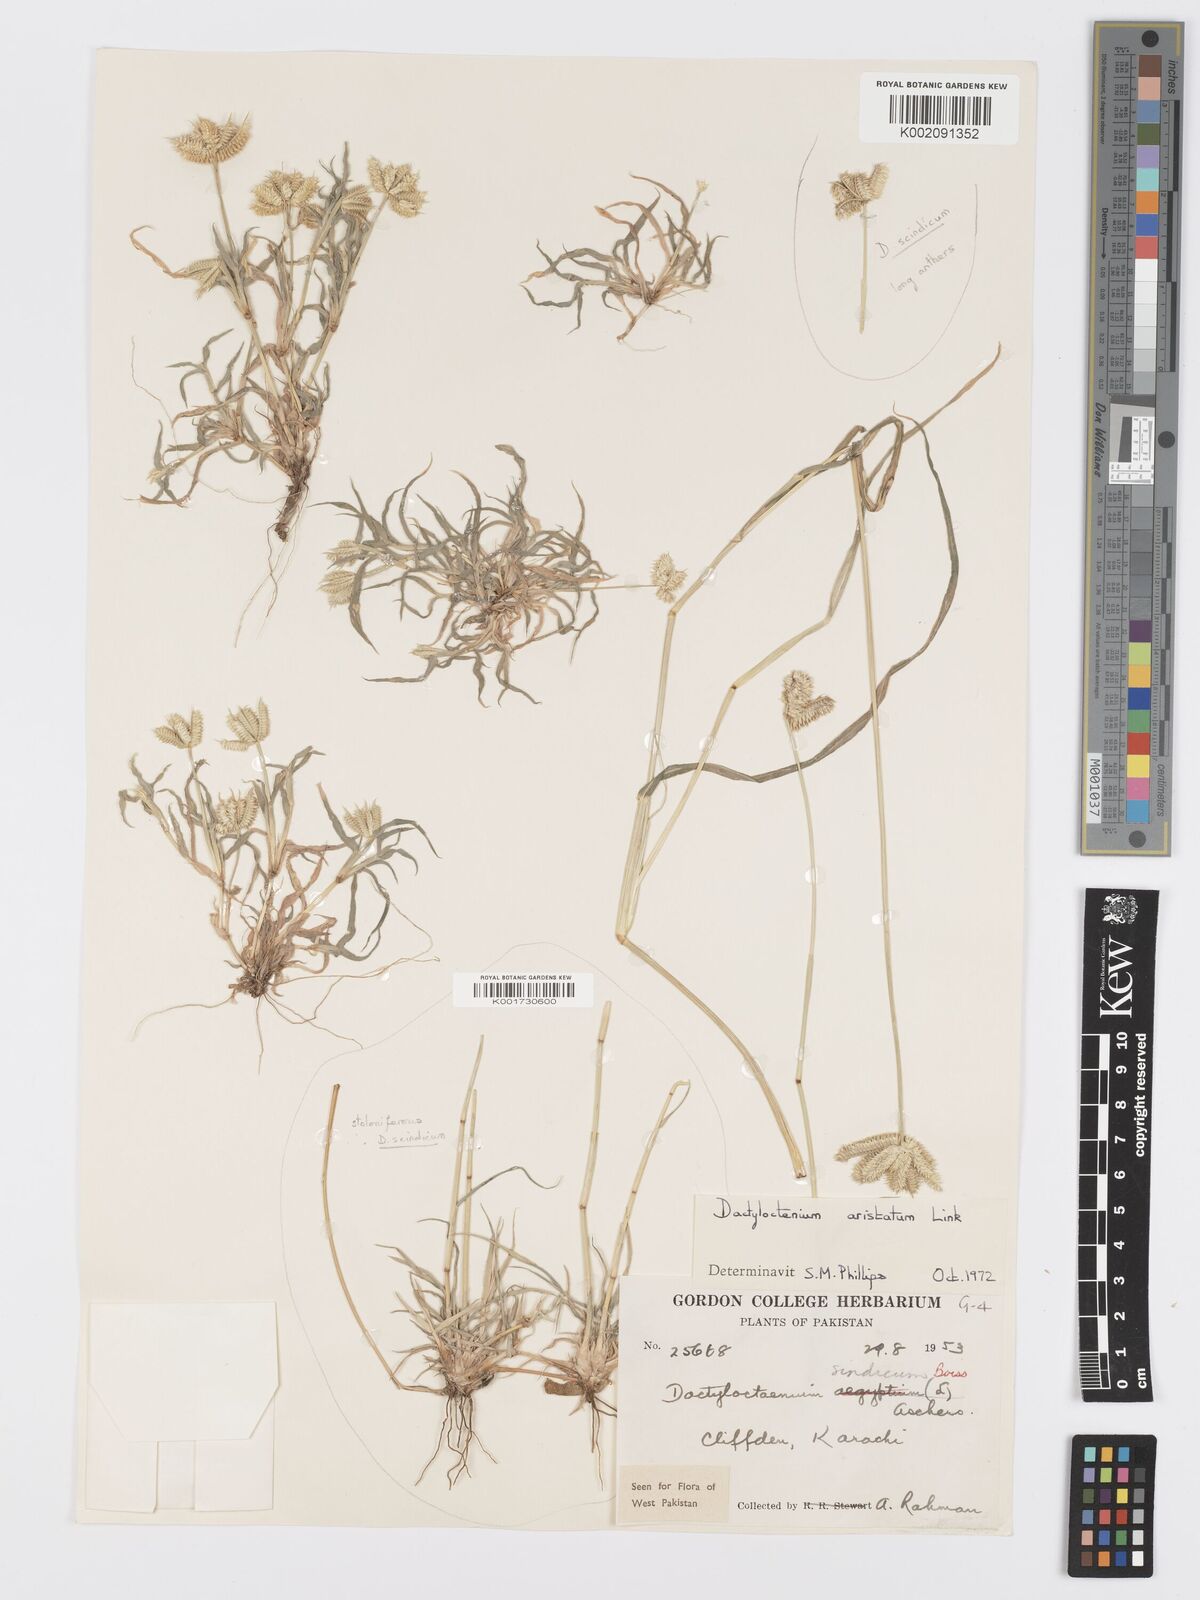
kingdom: Plantae
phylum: Tracheophyta
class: Liliopsida
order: Poales
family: Poaceae
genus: Dactyloctenium
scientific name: Dactyloctenium aristatum
